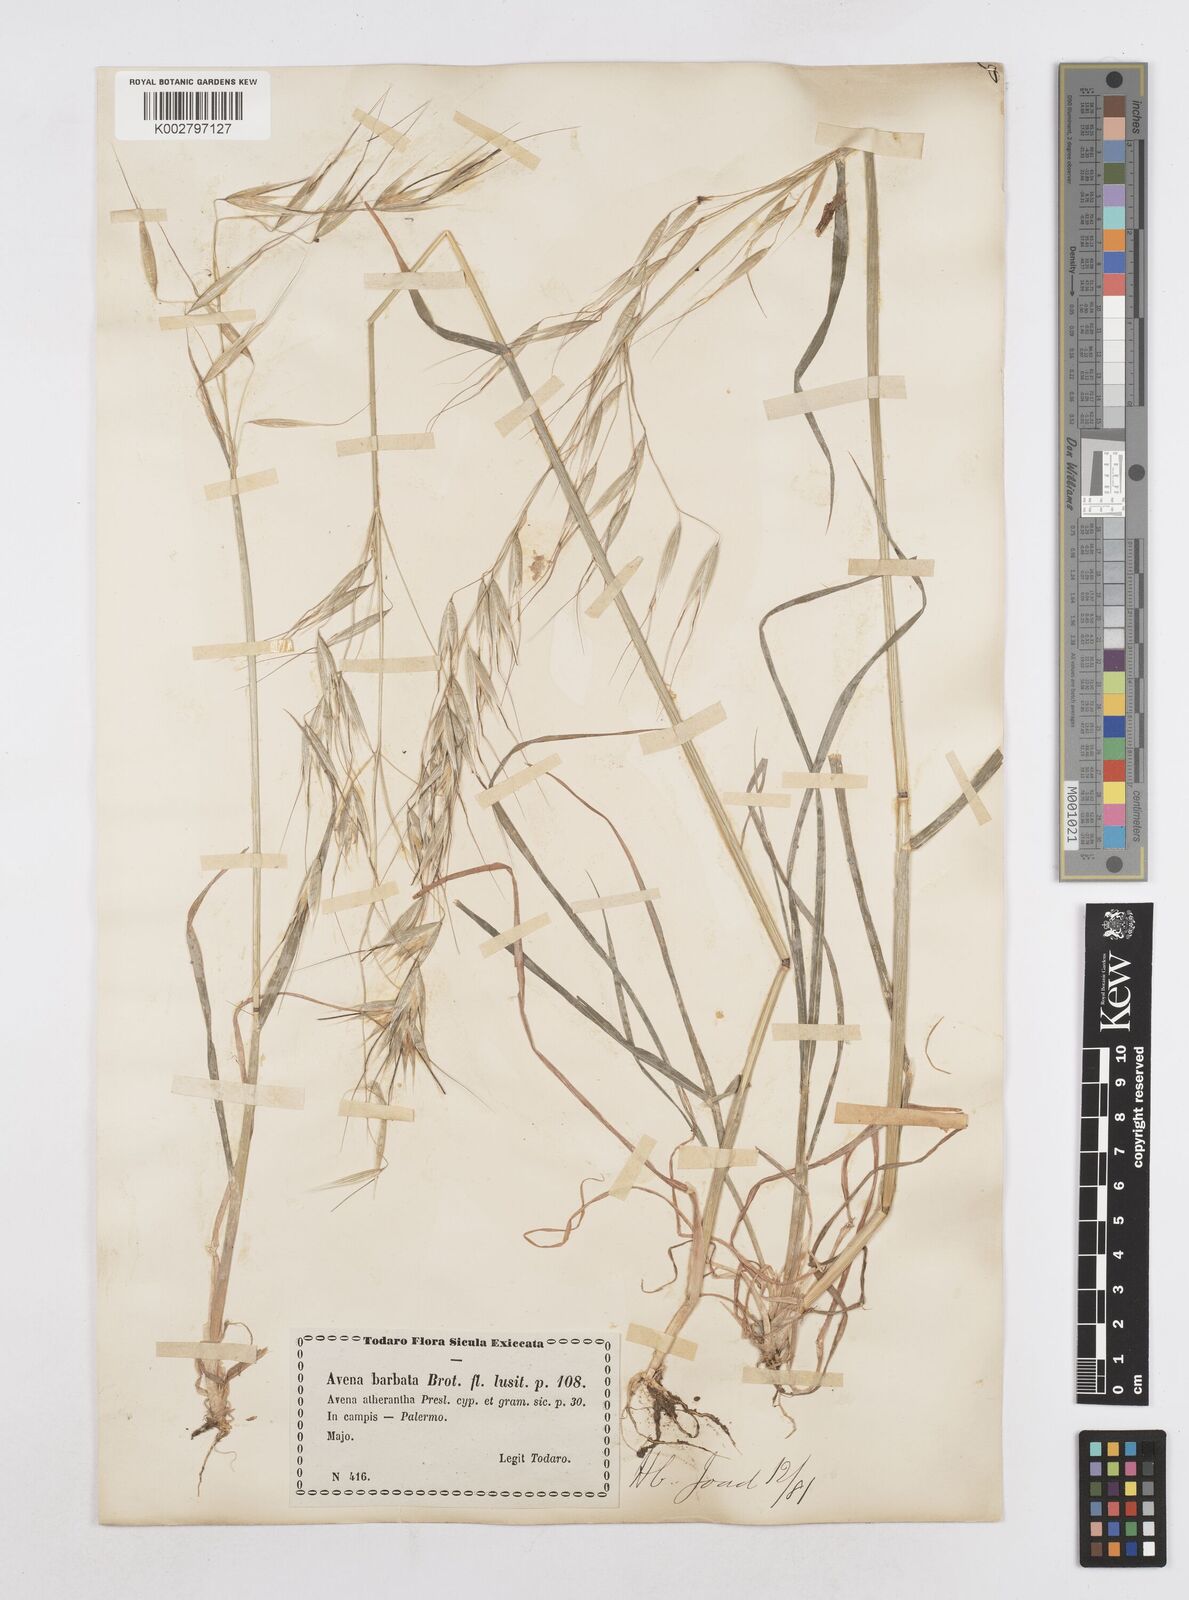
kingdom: Plantae
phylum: Tracheophyta
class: Liliopsida
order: Poales
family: Poaceae
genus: Avena
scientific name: Avena
